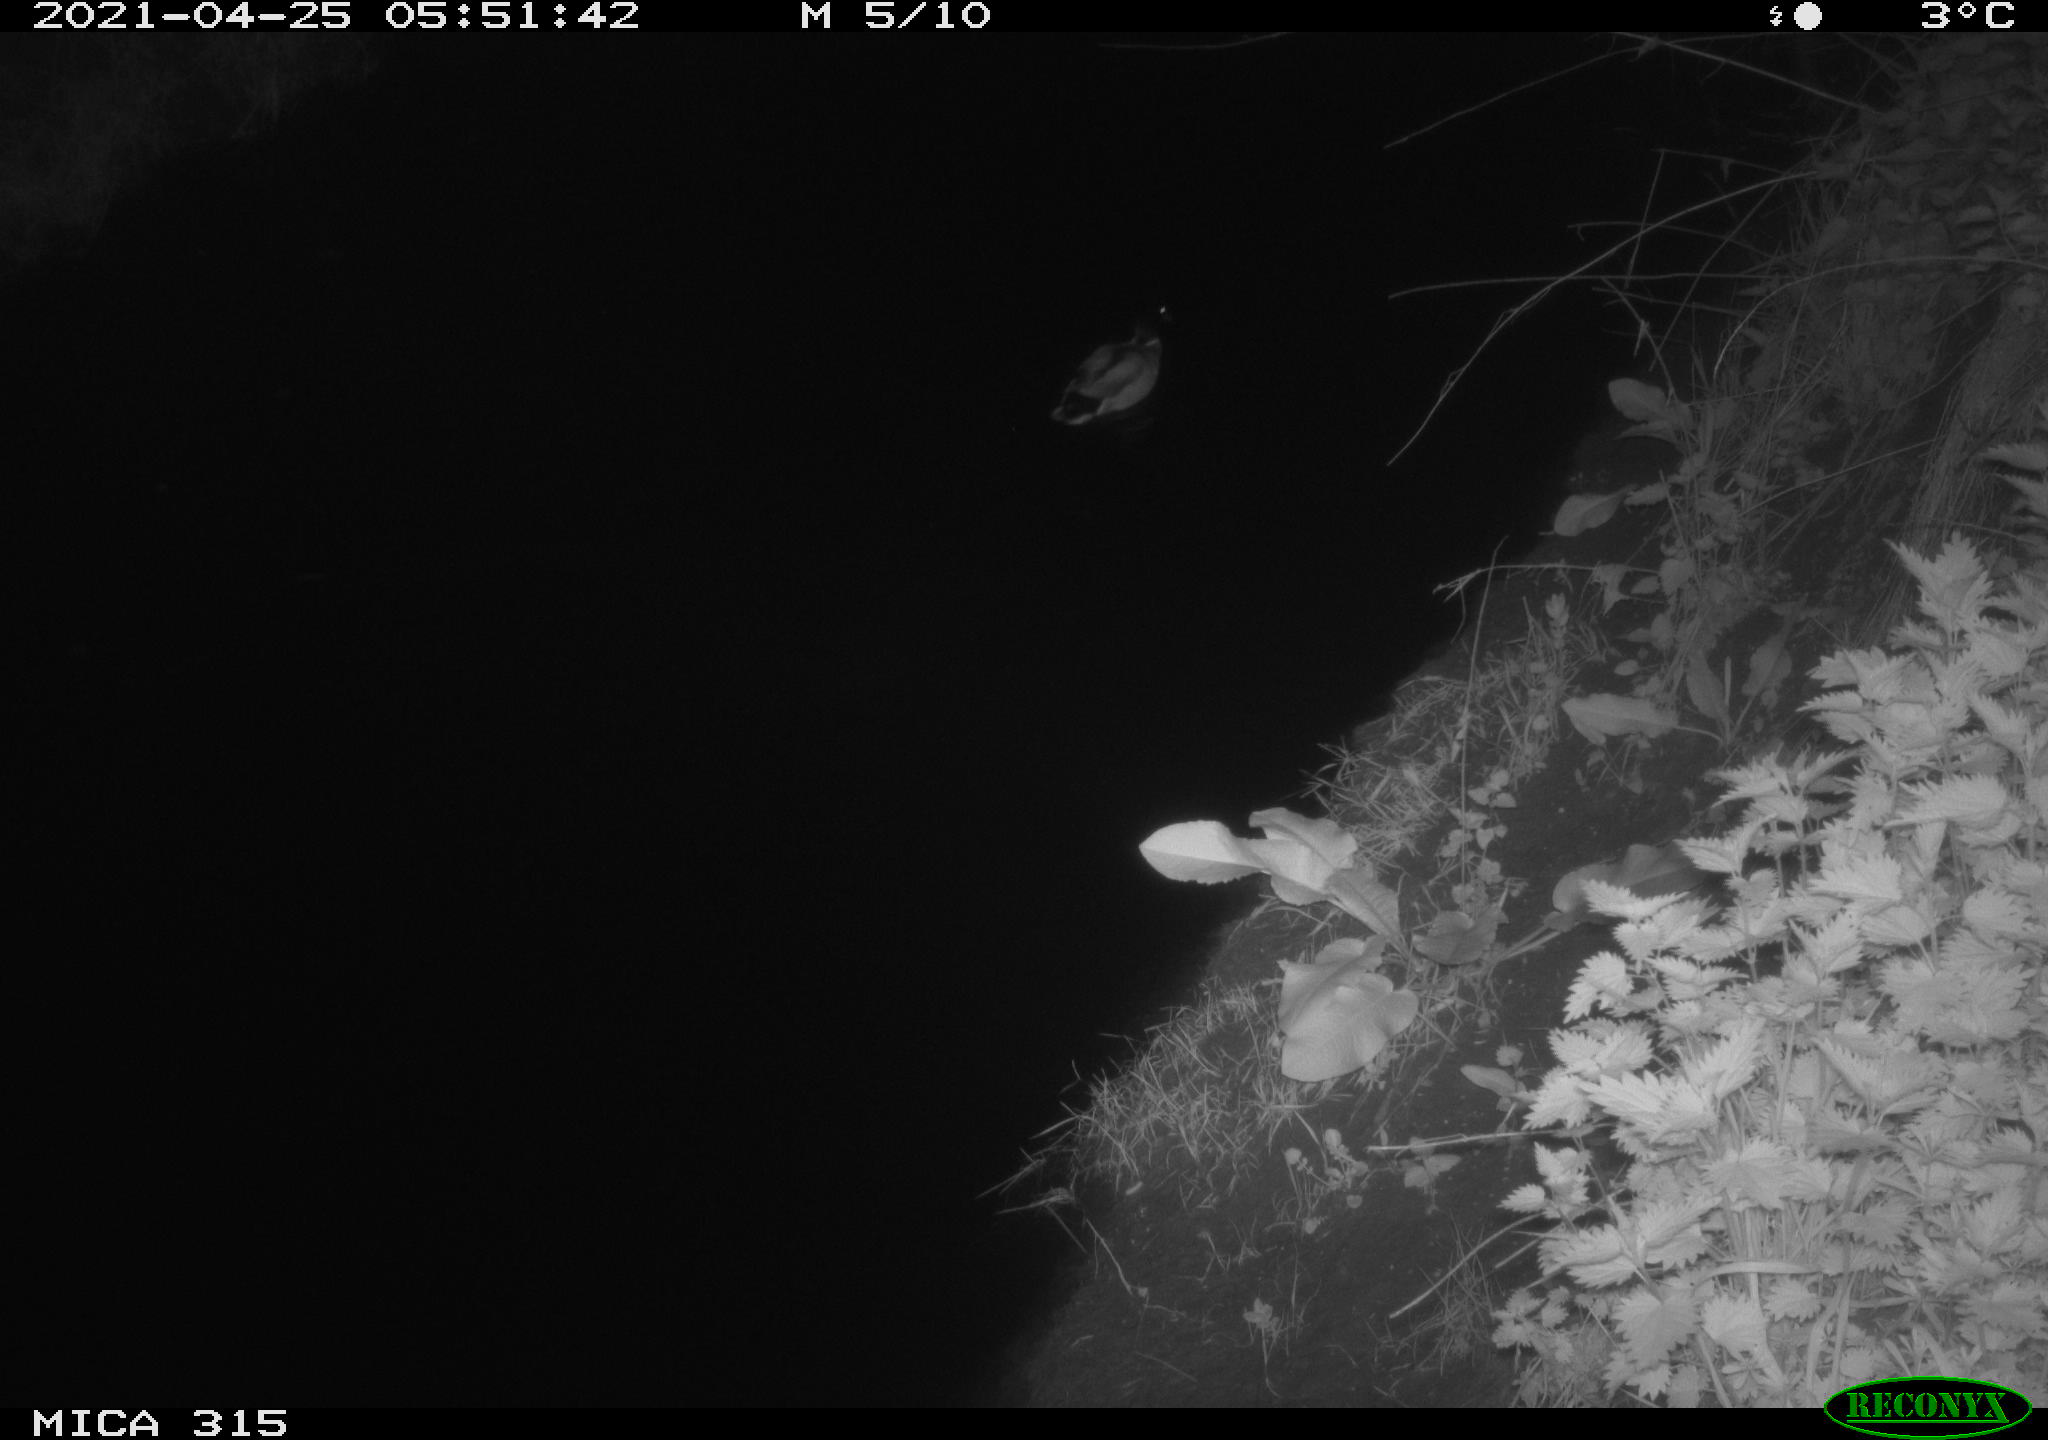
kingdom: Animalia
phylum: Chordata
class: Aves
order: Anseriformes
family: Anatidae
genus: Anas
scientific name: Anas
